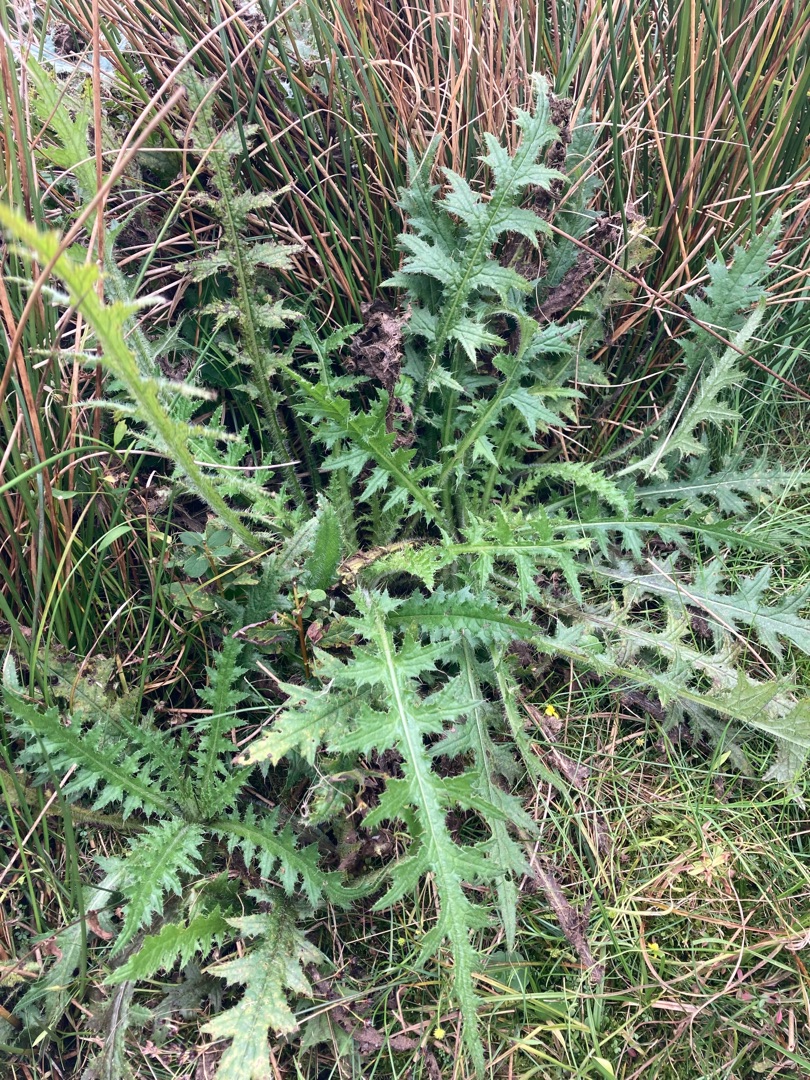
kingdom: Plantae
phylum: Tracheophyta
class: Magnoliopsida
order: Asterales
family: Asteraceae
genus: Cirsium
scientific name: Cirsium palustre
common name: Kær-tidsel
